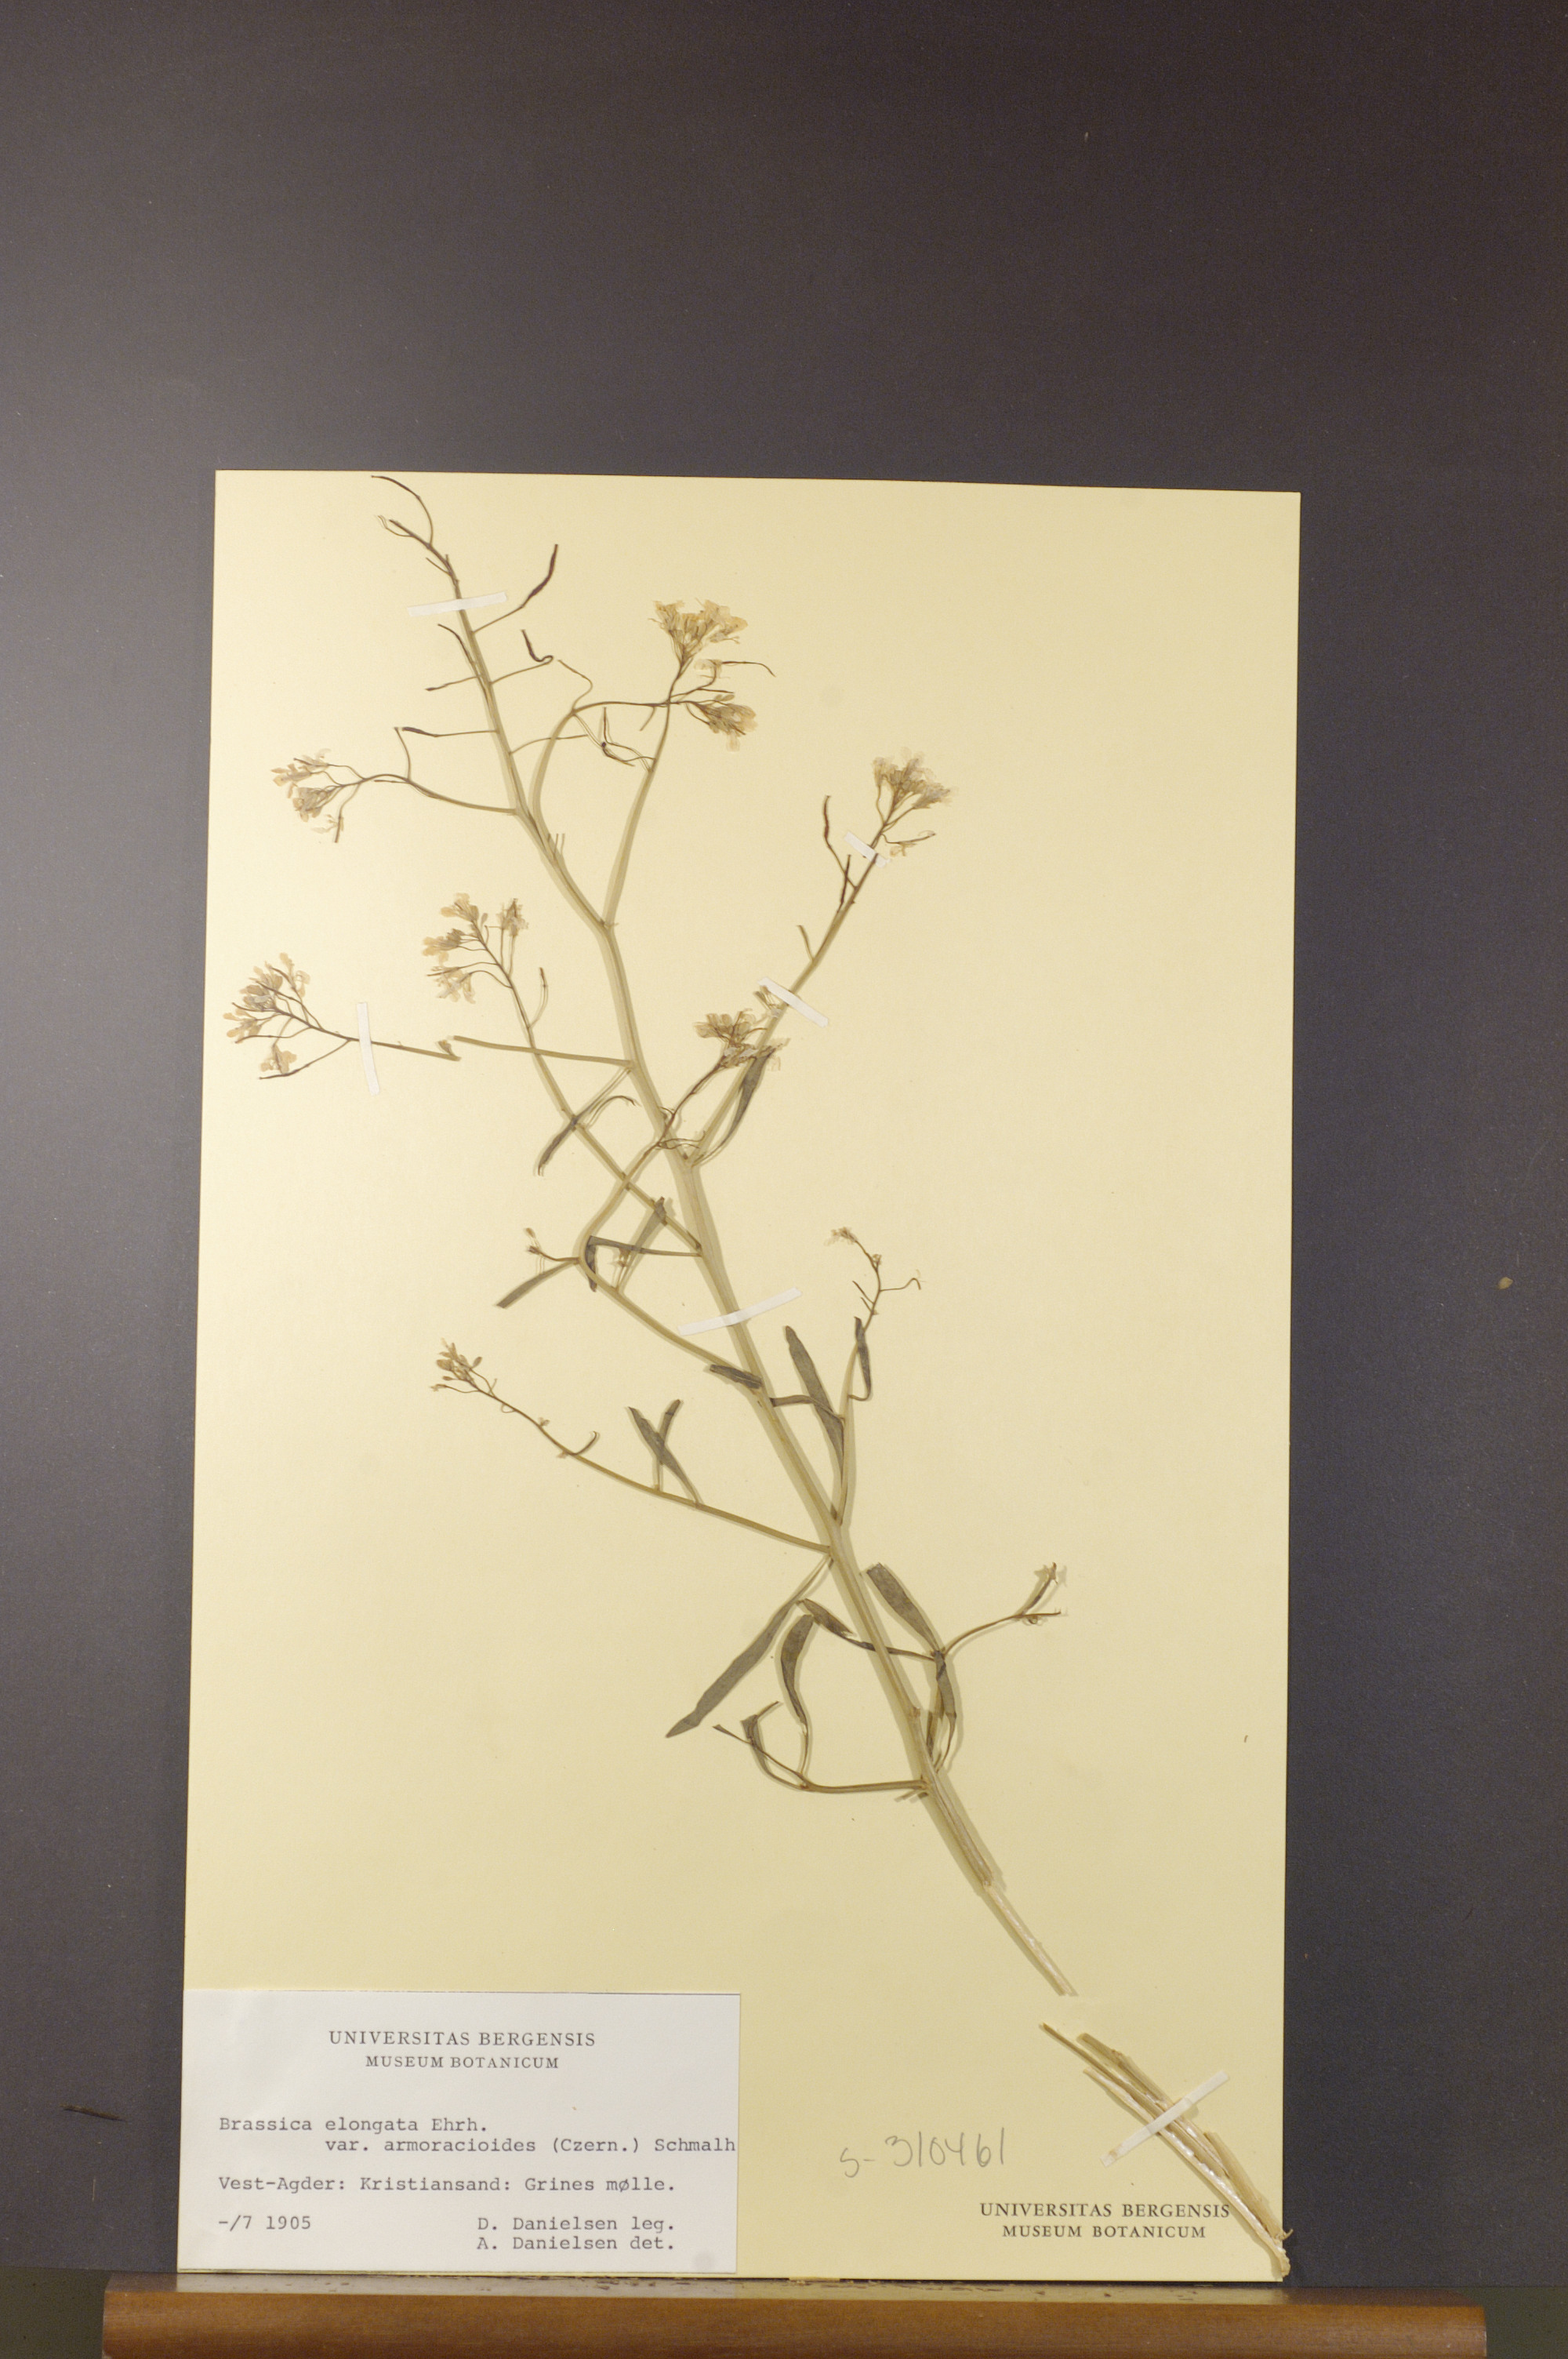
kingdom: Plantae
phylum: Tracheophyta
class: Magnoliopsida
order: Brassicales
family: Brassicaceae
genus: Brassica
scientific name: Brassica elongata
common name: Long-stalked rape
